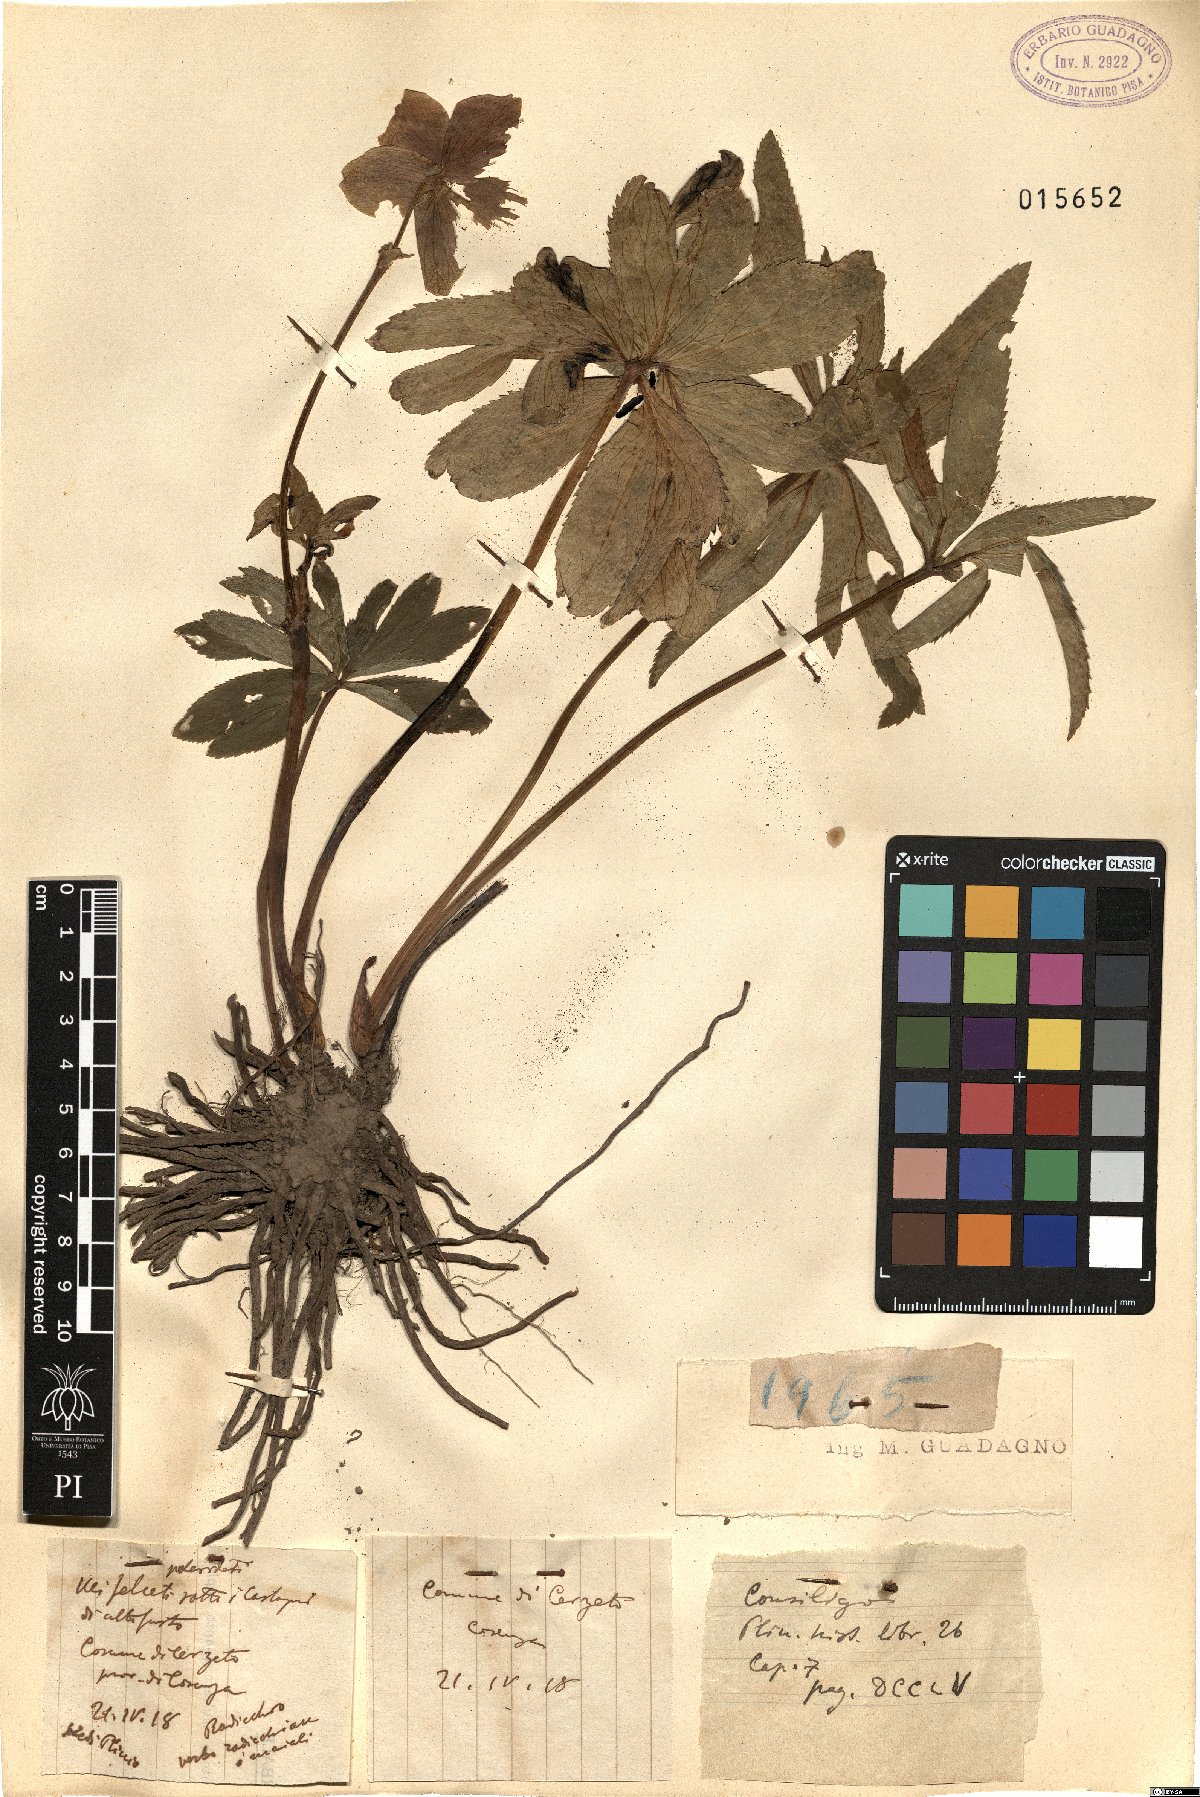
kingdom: Plantae
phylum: Tracheophyta
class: Magnoliopsida
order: Ranunculales
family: Ranunculaceae
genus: Helleborus
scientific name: Helleborus
